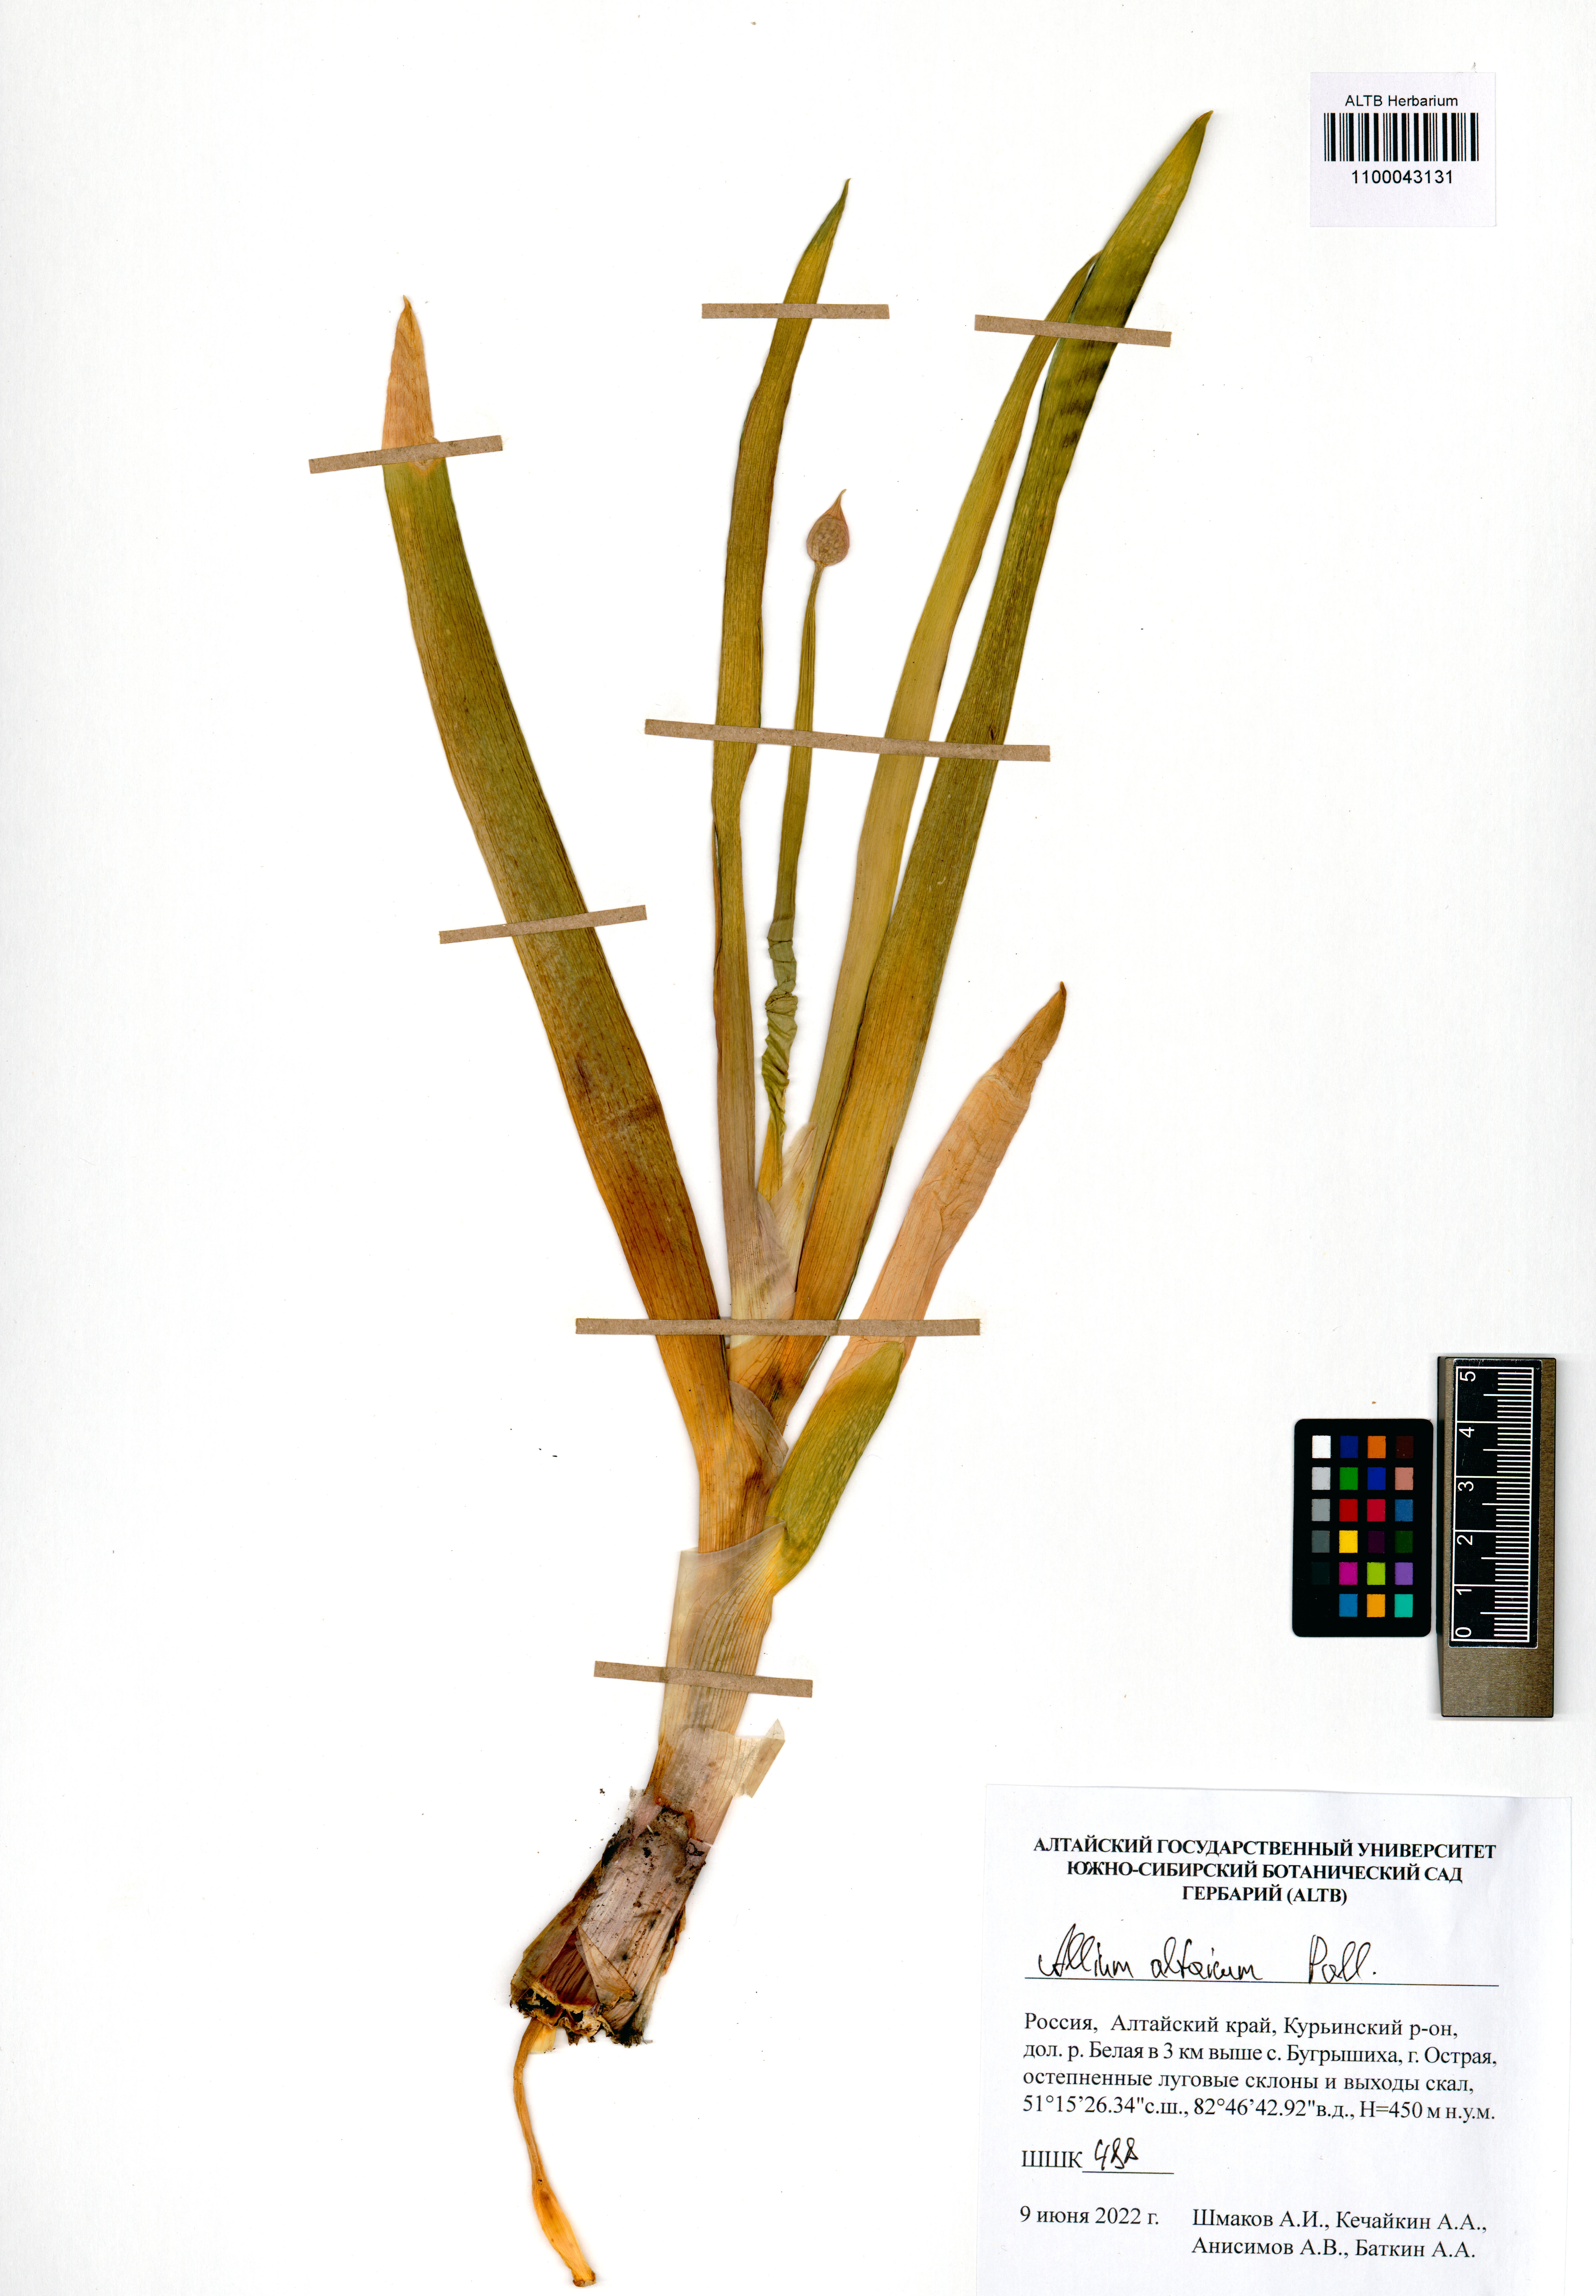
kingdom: Plantae
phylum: Tracheophyta
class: Liliopsida
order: Asparagales
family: Amaryllidaceae
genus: Allium
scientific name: Allium altaicum
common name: Altai onion
